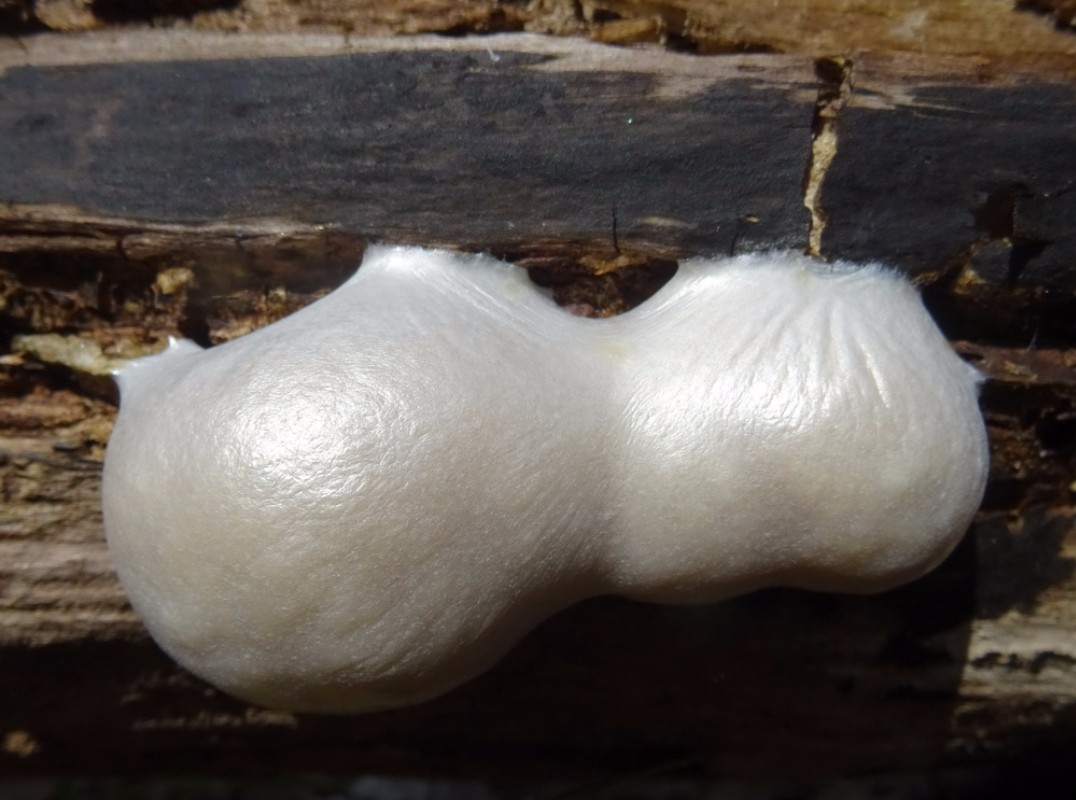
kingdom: Protozoa
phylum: Mycetozoa
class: Myxomycetes
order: Cribrariales
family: Tubiferaceae
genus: Reticularia
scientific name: Reticularia lycoperdon
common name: skinnende støvpude
